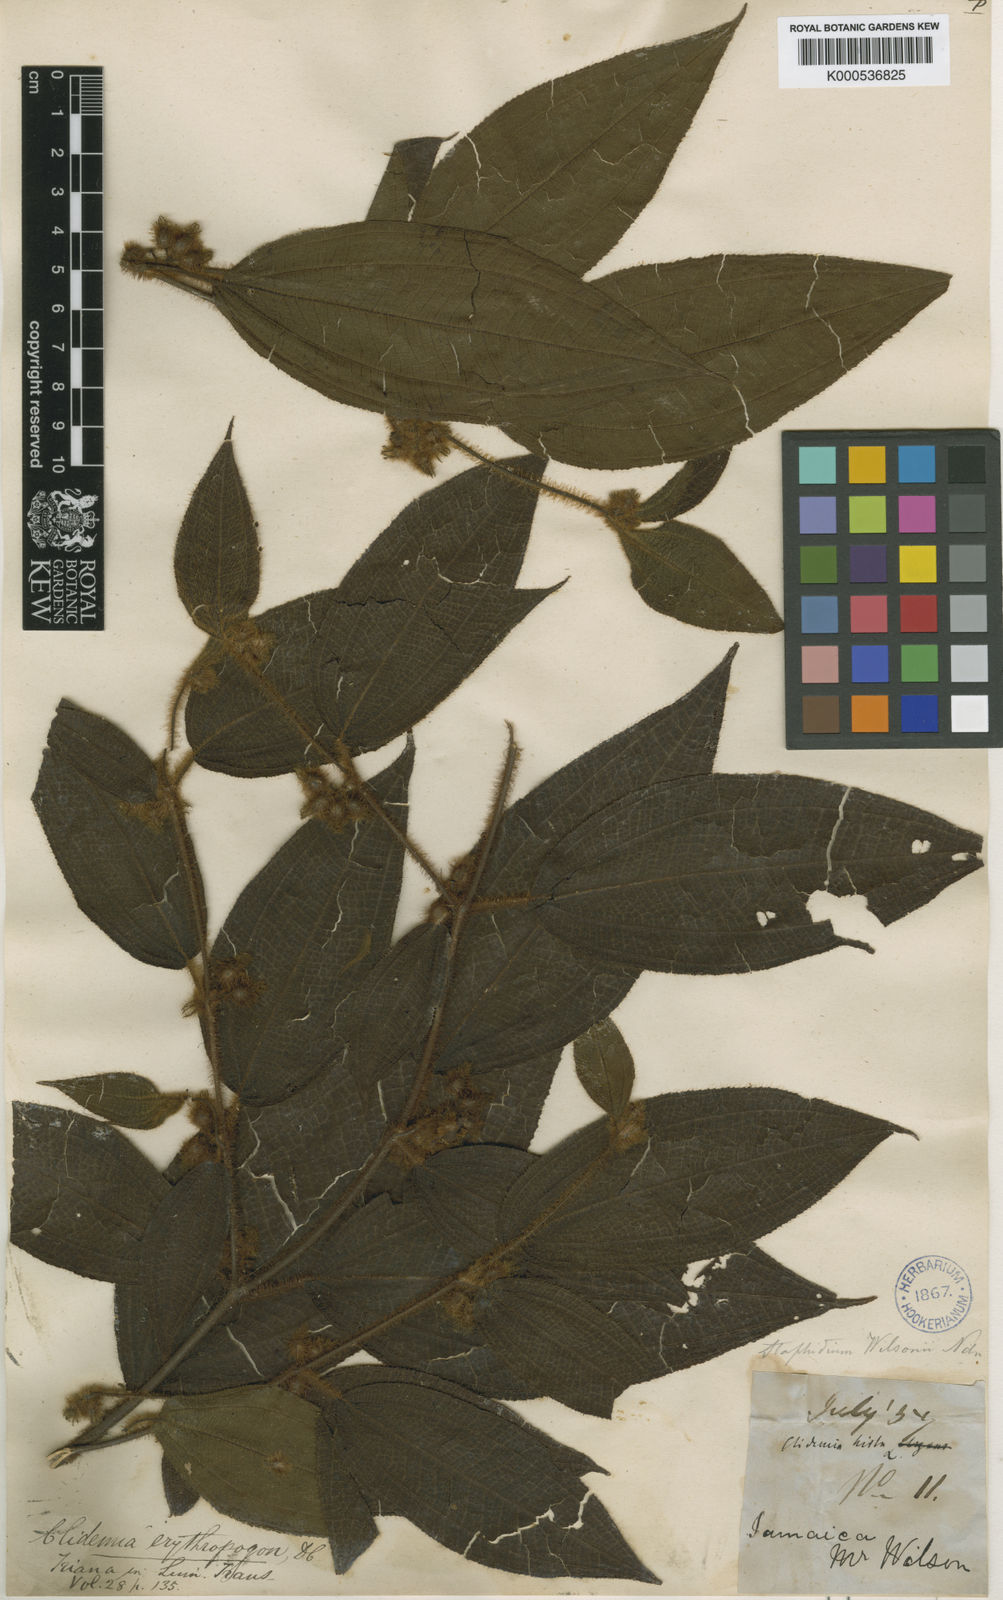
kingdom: Plantae
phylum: Tracheophyta
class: Magnoliopsida
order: Myrtales
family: Melastomataceae
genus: Miconia
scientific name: Miconia erythropogon
